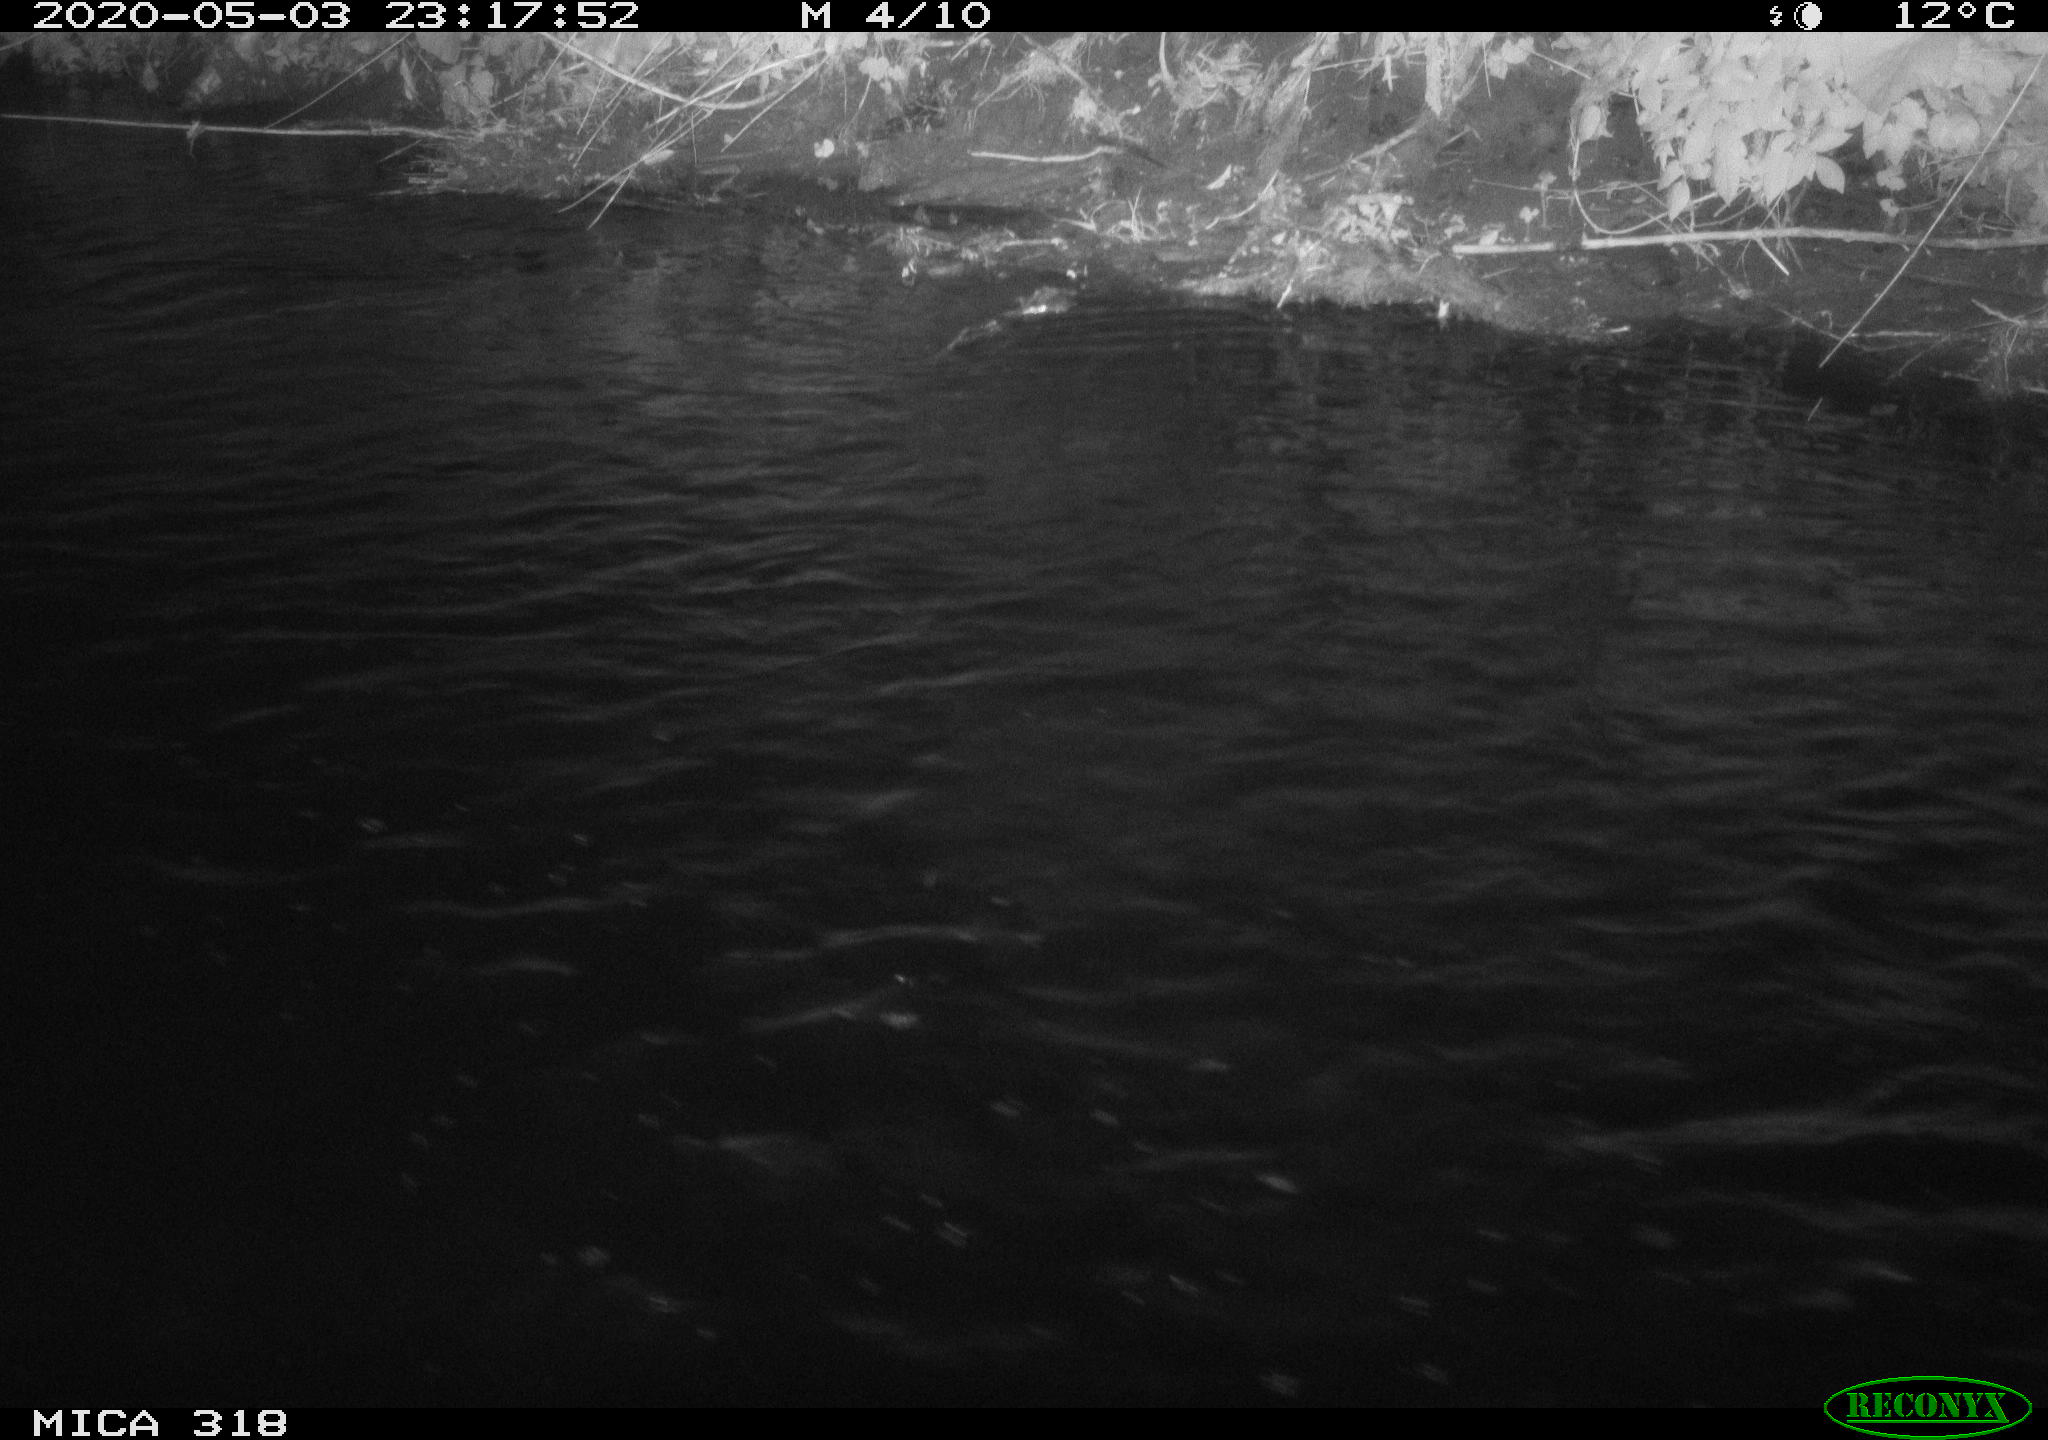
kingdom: Animalia
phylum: Chordata
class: Aves
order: Pelecaniformes
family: Ardeidae
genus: Ardea
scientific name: Ardea cinerea
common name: Grey heron
